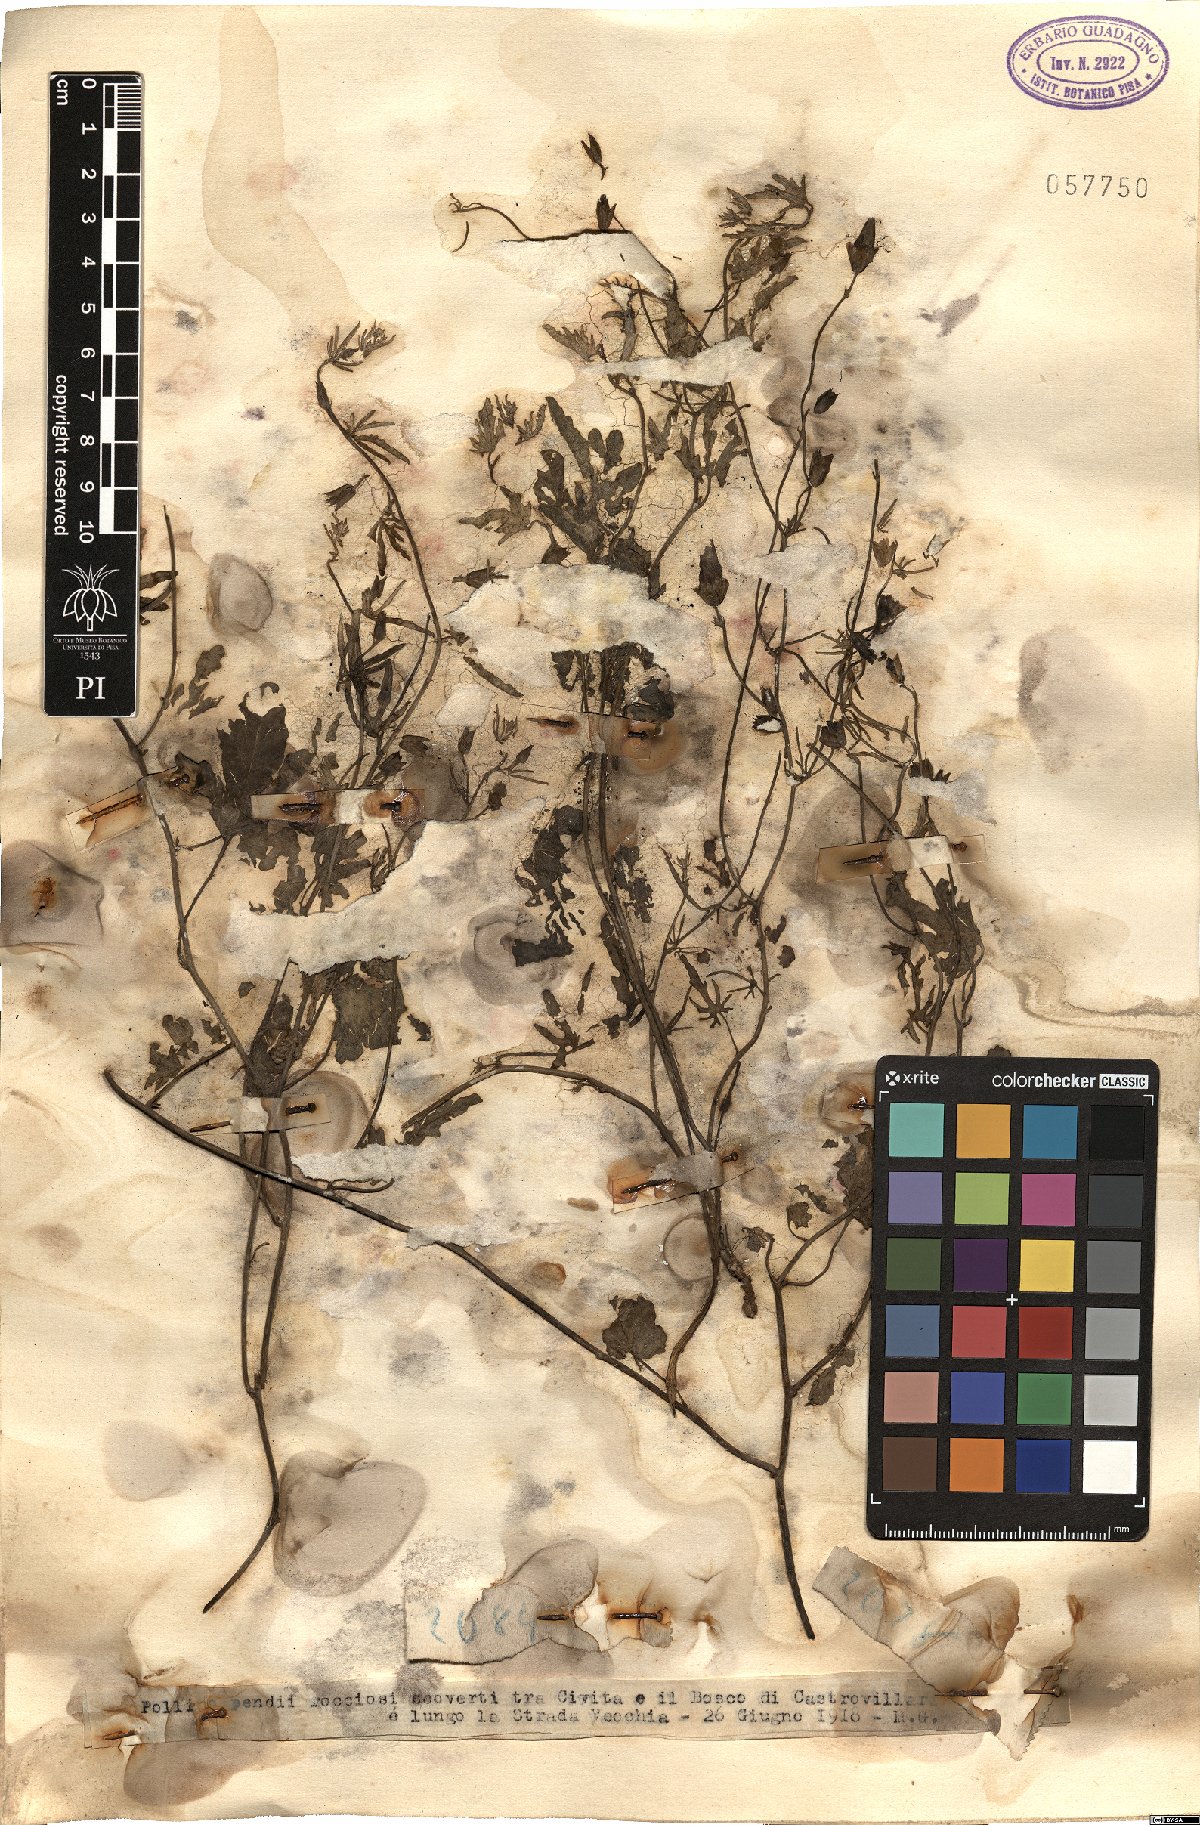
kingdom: Plantae
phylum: Tracheophyta
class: Magnoliopsida
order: Solanales
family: Convolvulaceae
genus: Convolvulus
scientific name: Convolvulus
